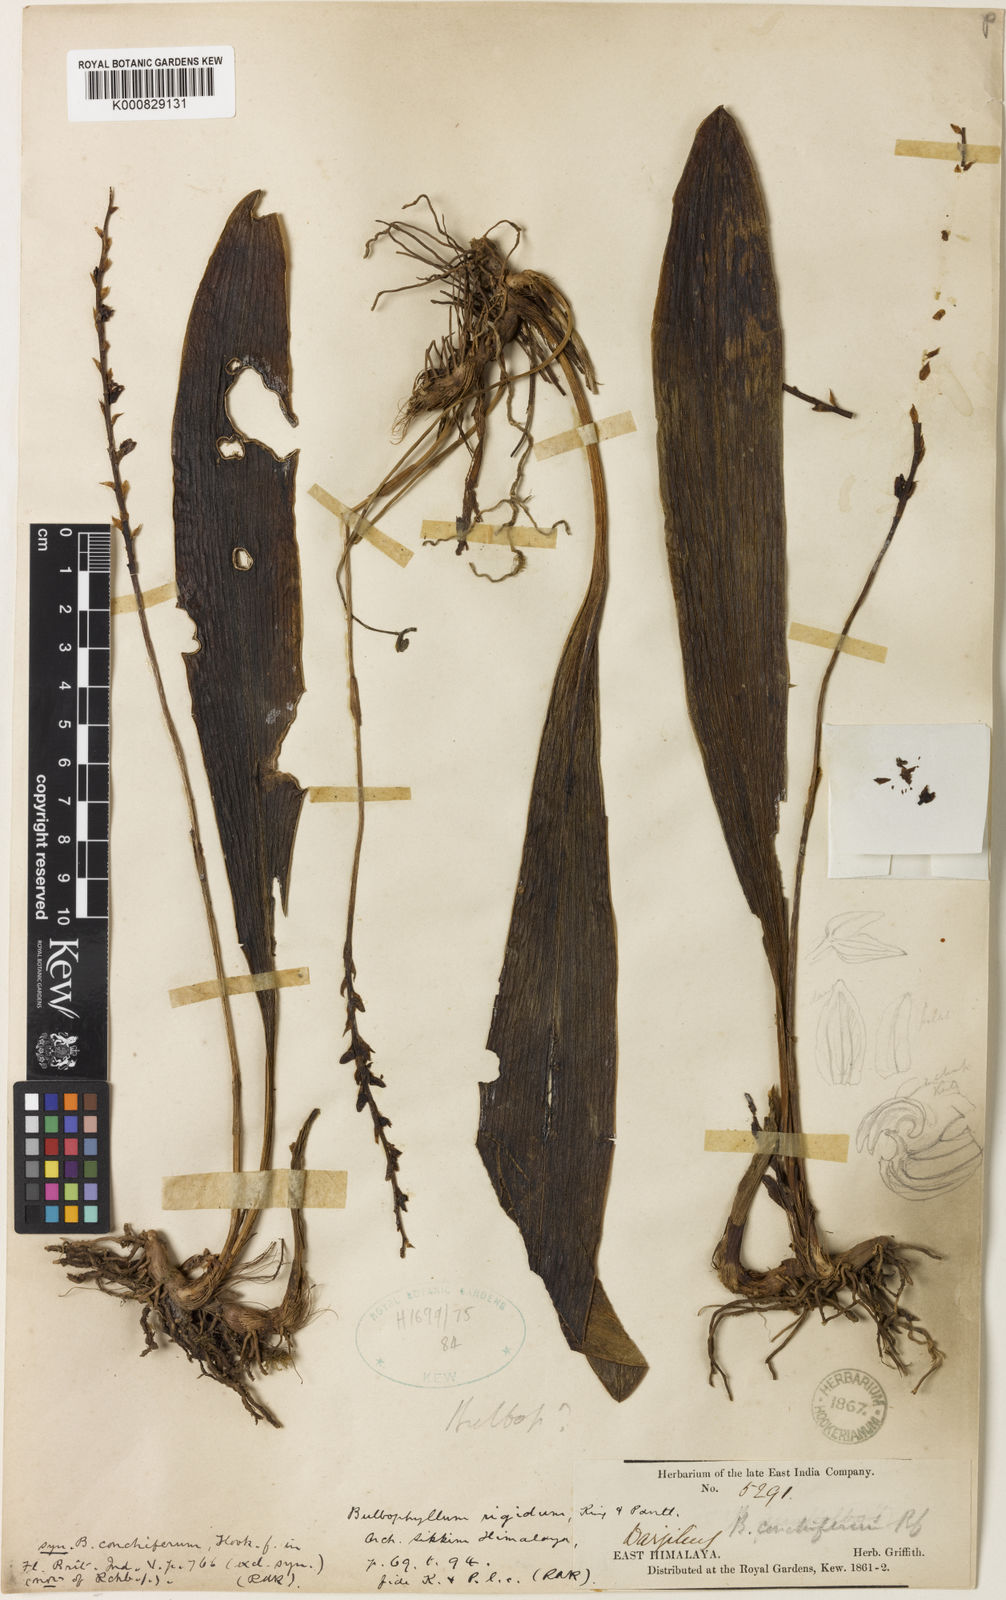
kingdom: Plantae
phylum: Tracheophyta
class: Liliopsida
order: Asparagales
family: Orchidaceae
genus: Bulbophyllum
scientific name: Bulbophyllum rigidum
